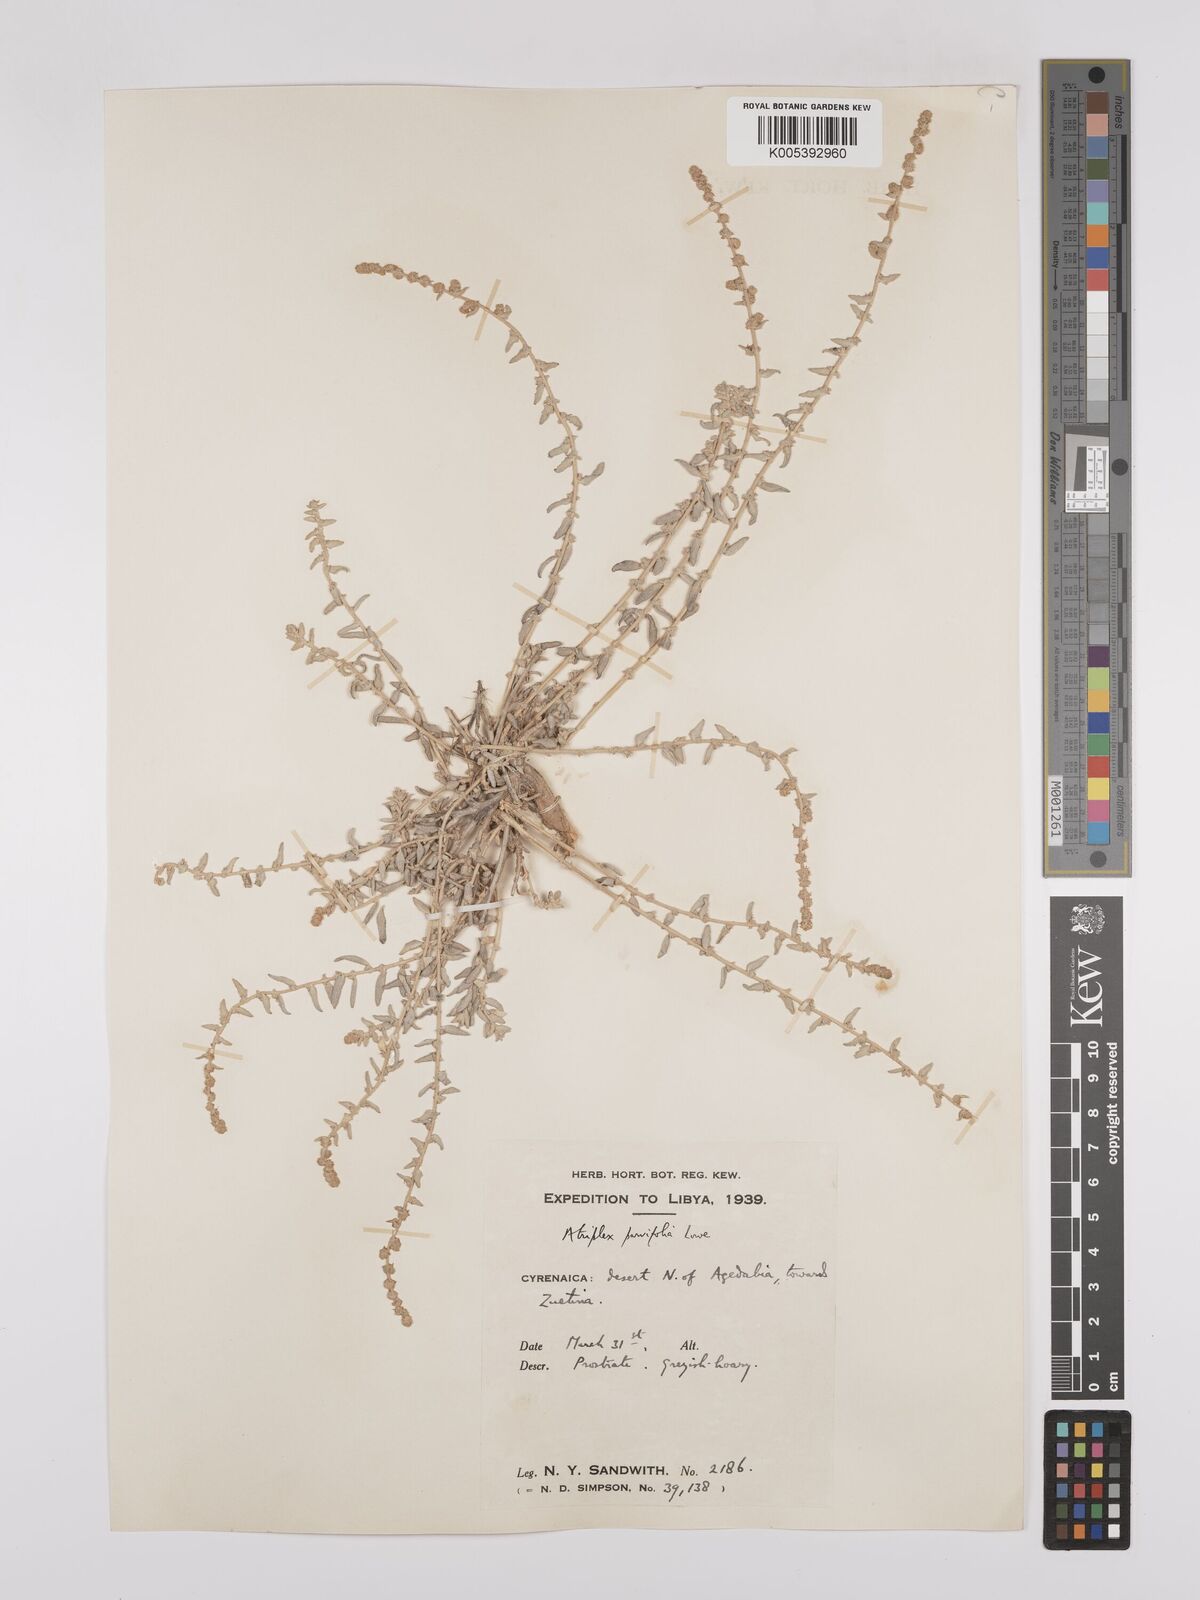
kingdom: Plantae
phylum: Tracheophyta
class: Magnoliopsida
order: Caryophyllales
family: Amaranthaceae
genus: Atriplex
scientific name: Atriplex
